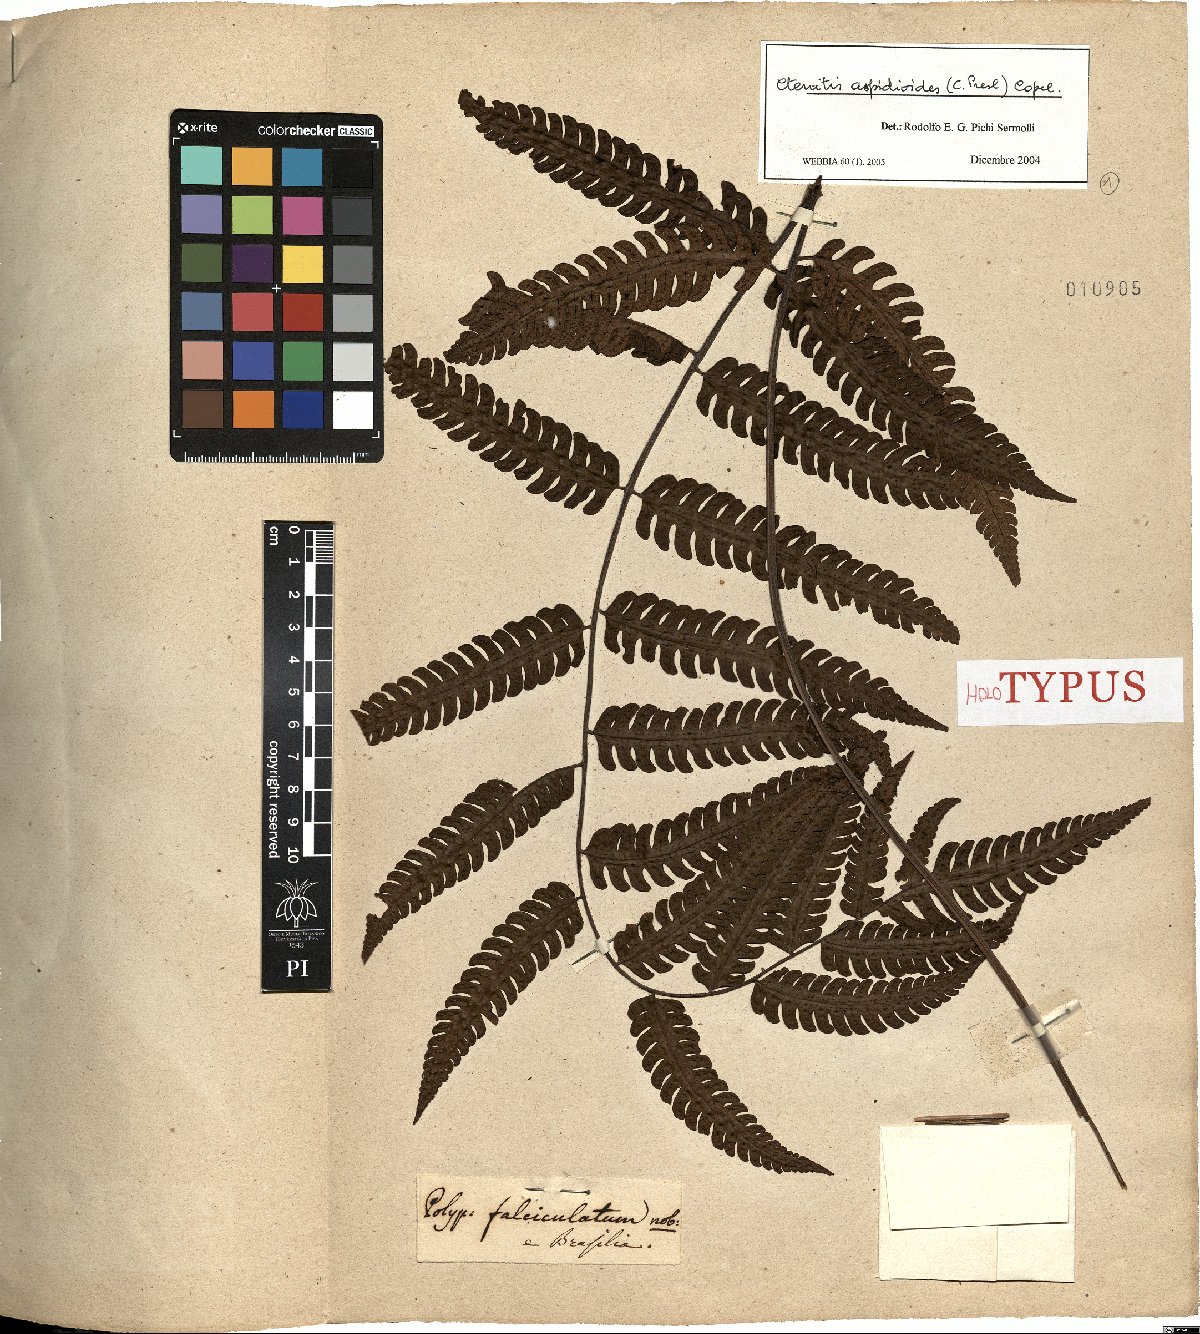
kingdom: Plantae
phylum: Tracheophyta
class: Polypodiopsida
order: Polypodiales
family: Dryopteridaceae
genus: Ctenitis
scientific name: Ctenitis aspidioides
